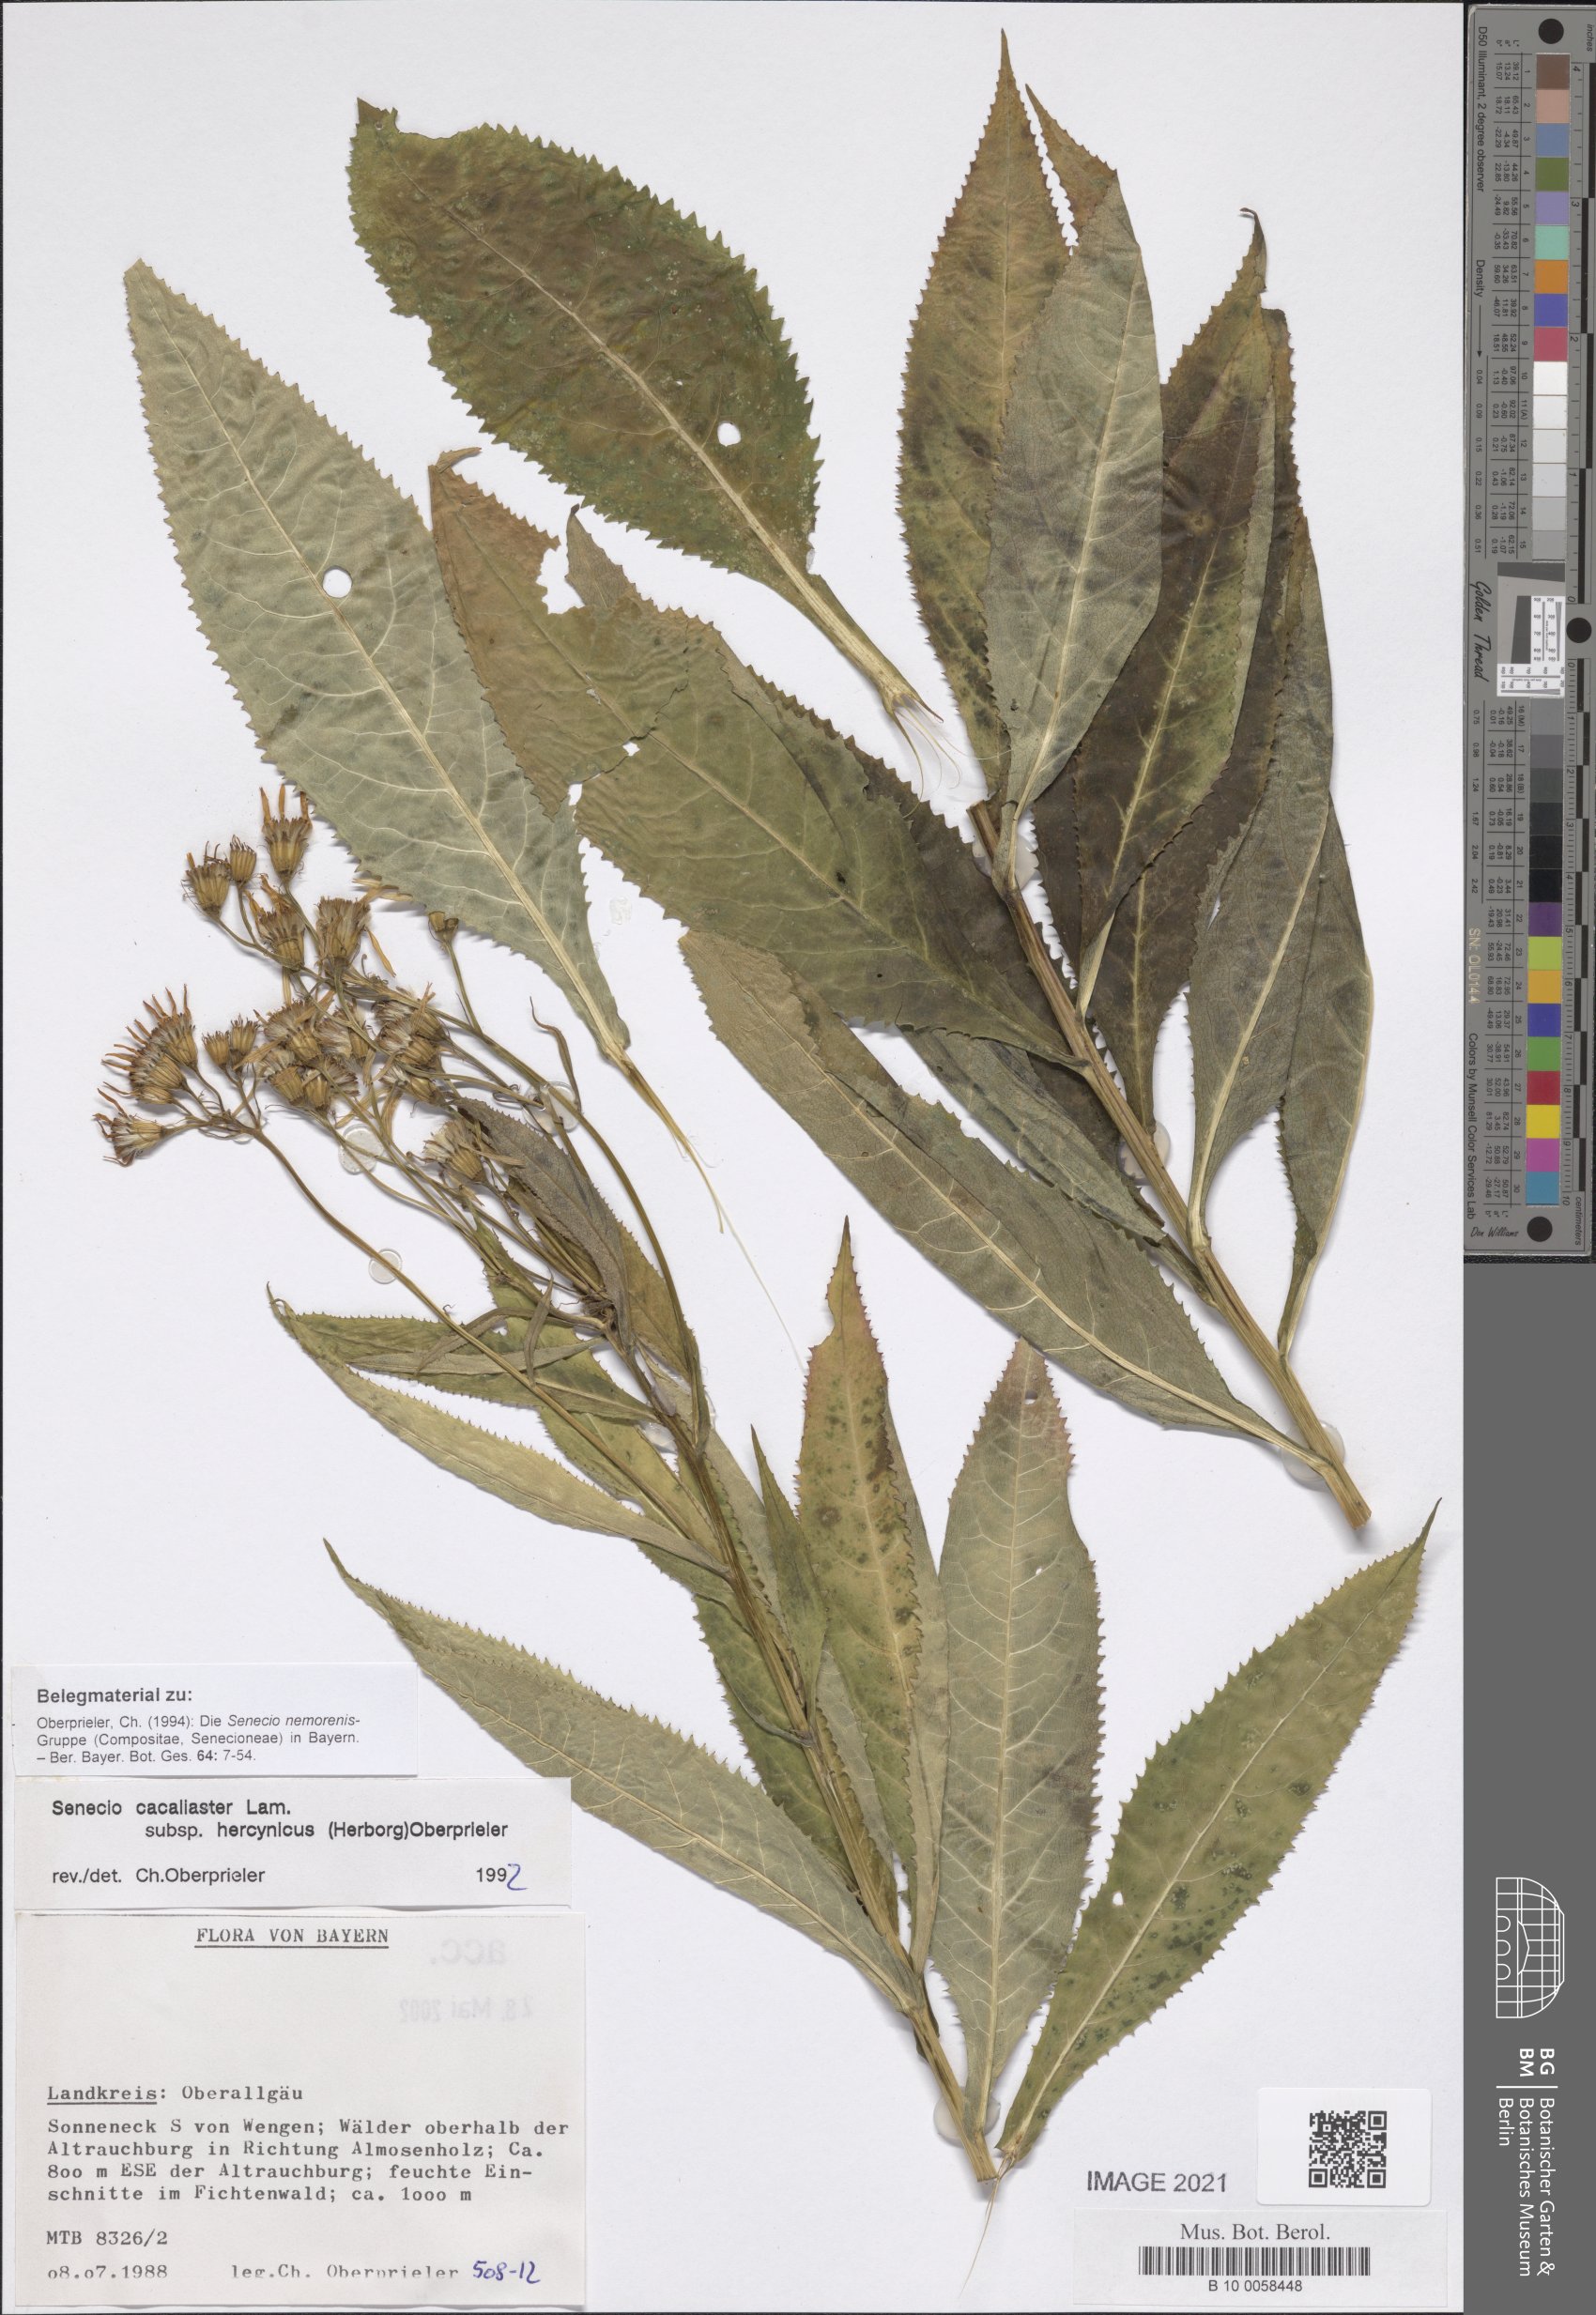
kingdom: Plantae
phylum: Tracheophyta
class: Magnoliopsida
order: Asterales
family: Asteraceae
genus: Senecio
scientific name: Senecio hercynicus
